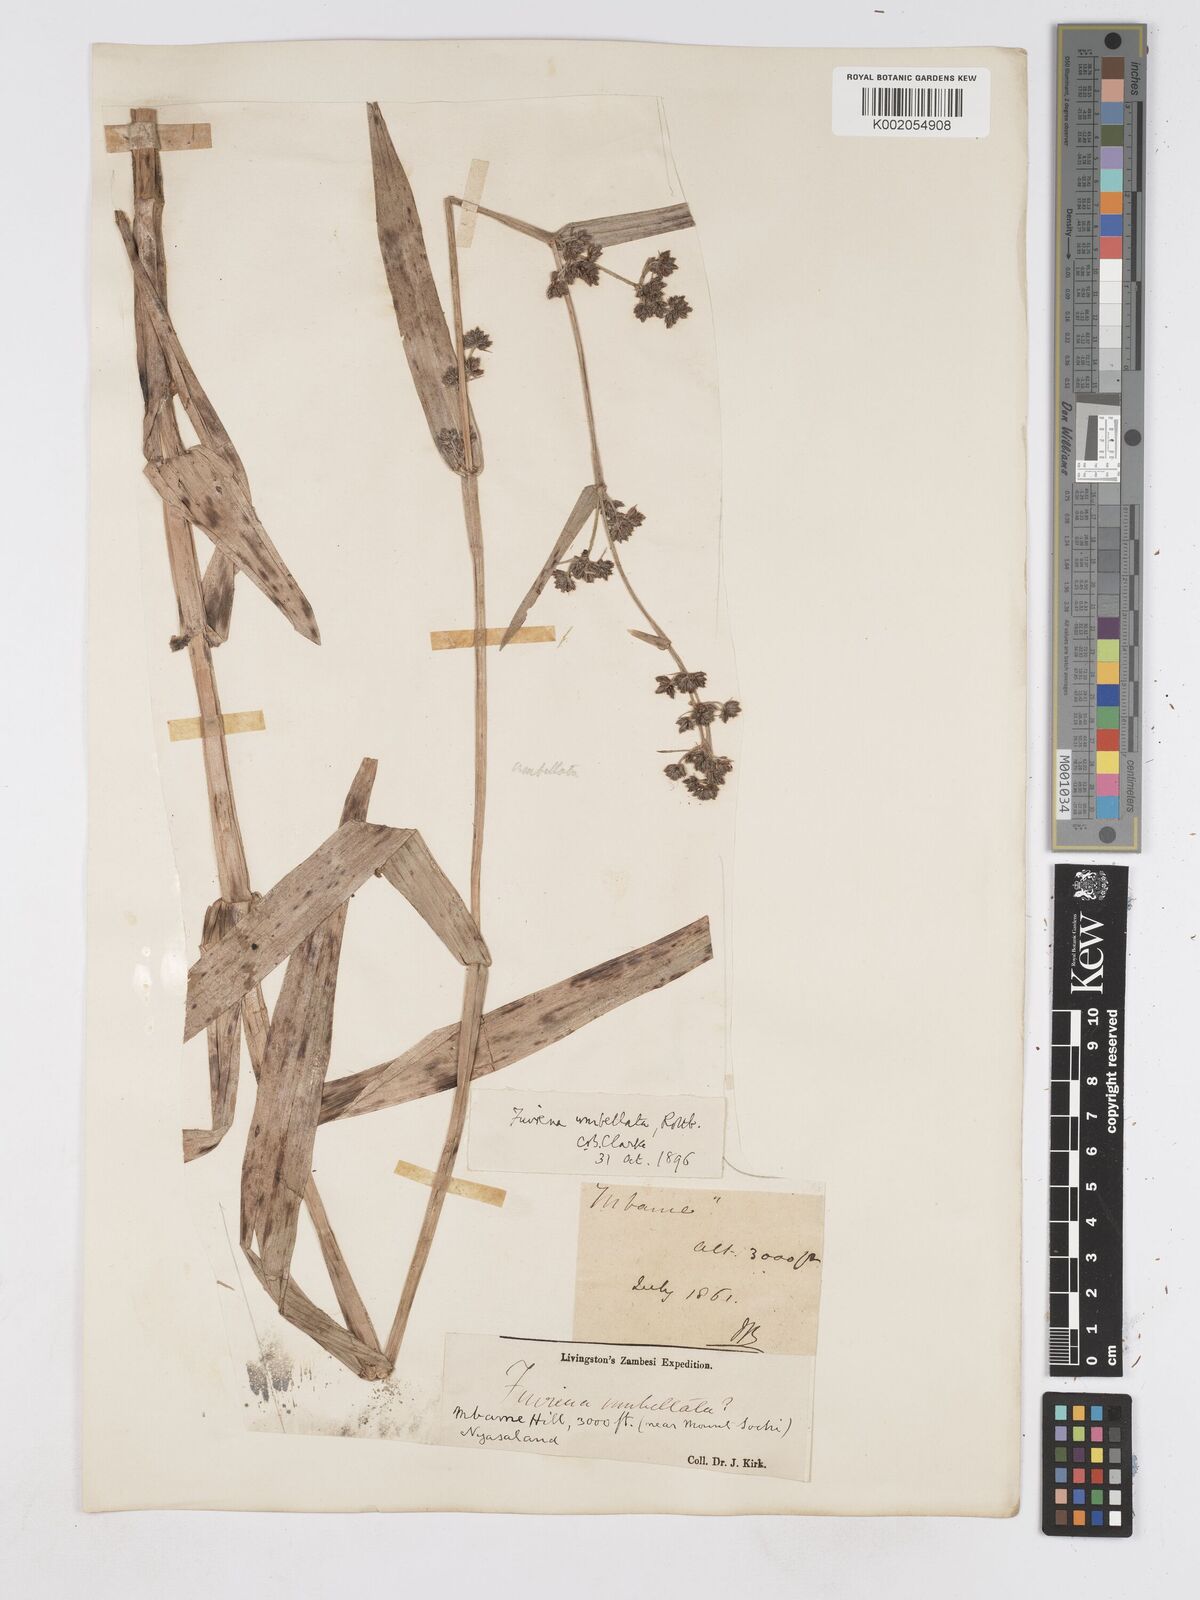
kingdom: Plantae
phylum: Tracheophyta
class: Liliopsida
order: Poales
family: Cyperaceae
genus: Fuirena
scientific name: Fuirena umbellata
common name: Yefen
